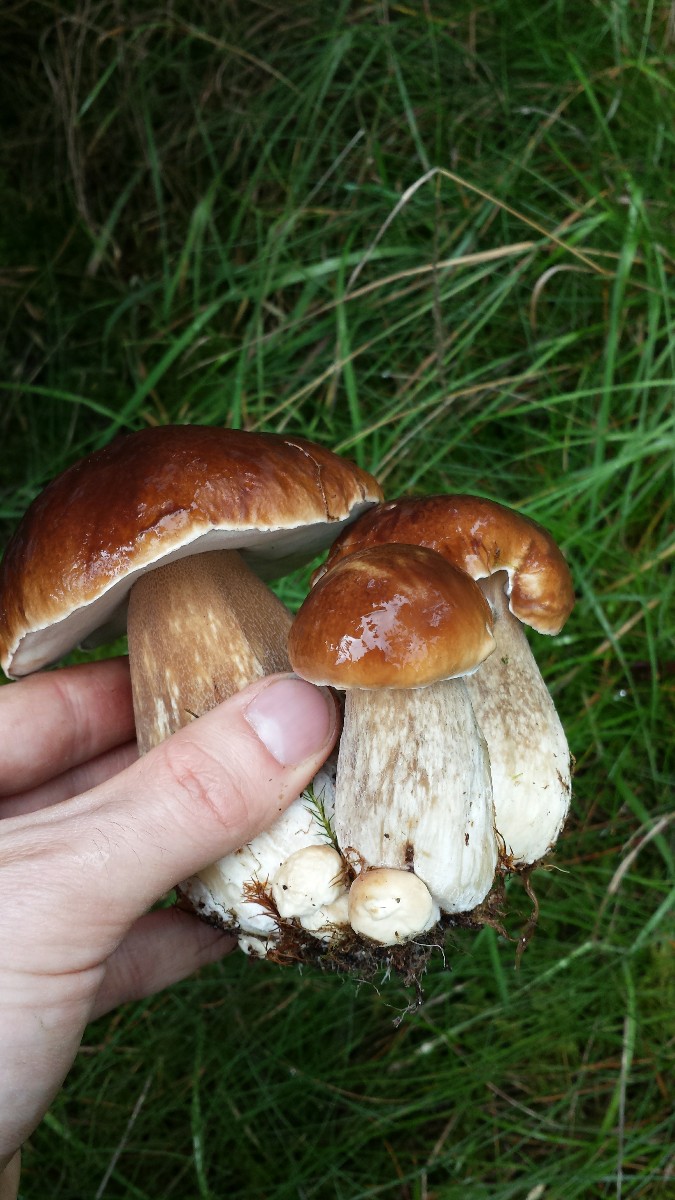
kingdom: Fungi
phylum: Basidiomycota
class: Agaricomycetes
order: Boletales
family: Boletaceae
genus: Boletus
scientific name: Boletus edulis
